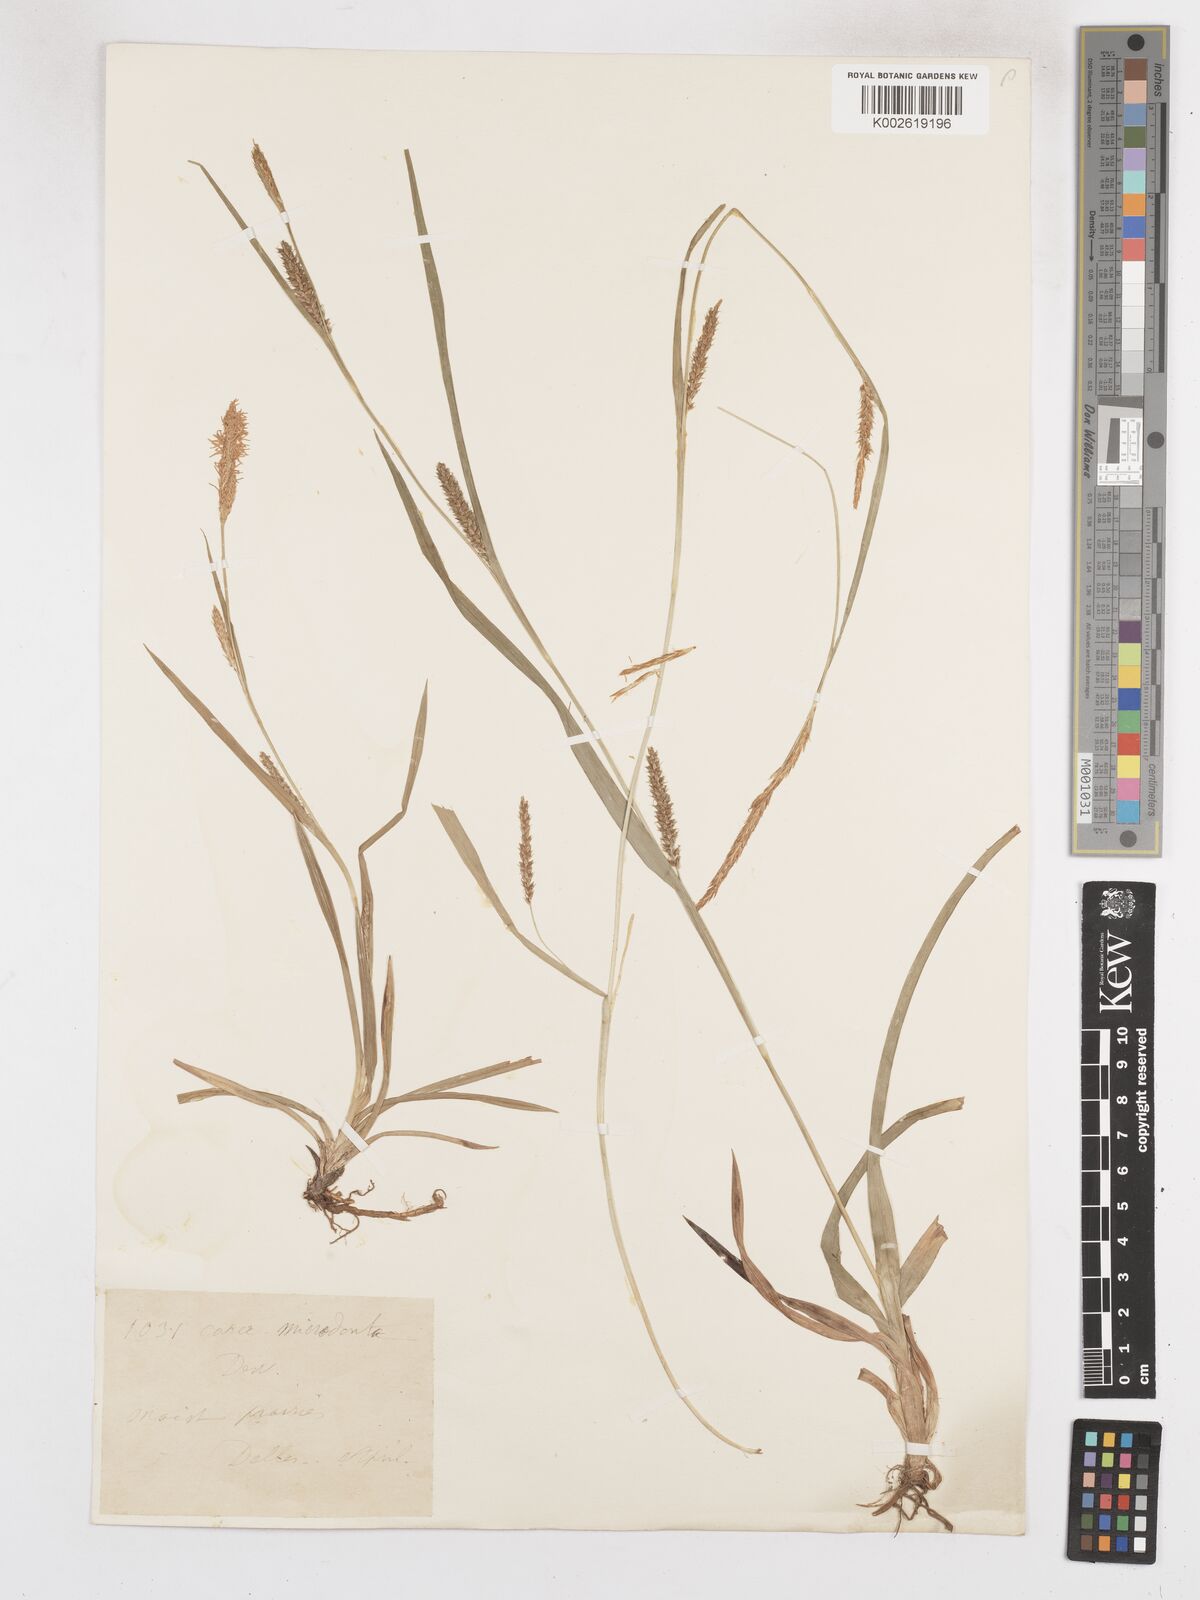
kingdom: Plantae
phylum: Tracheophyta
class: Liliopsida
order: Poales
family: Cyperaceae
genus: Carex
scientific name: Carex microdonta
